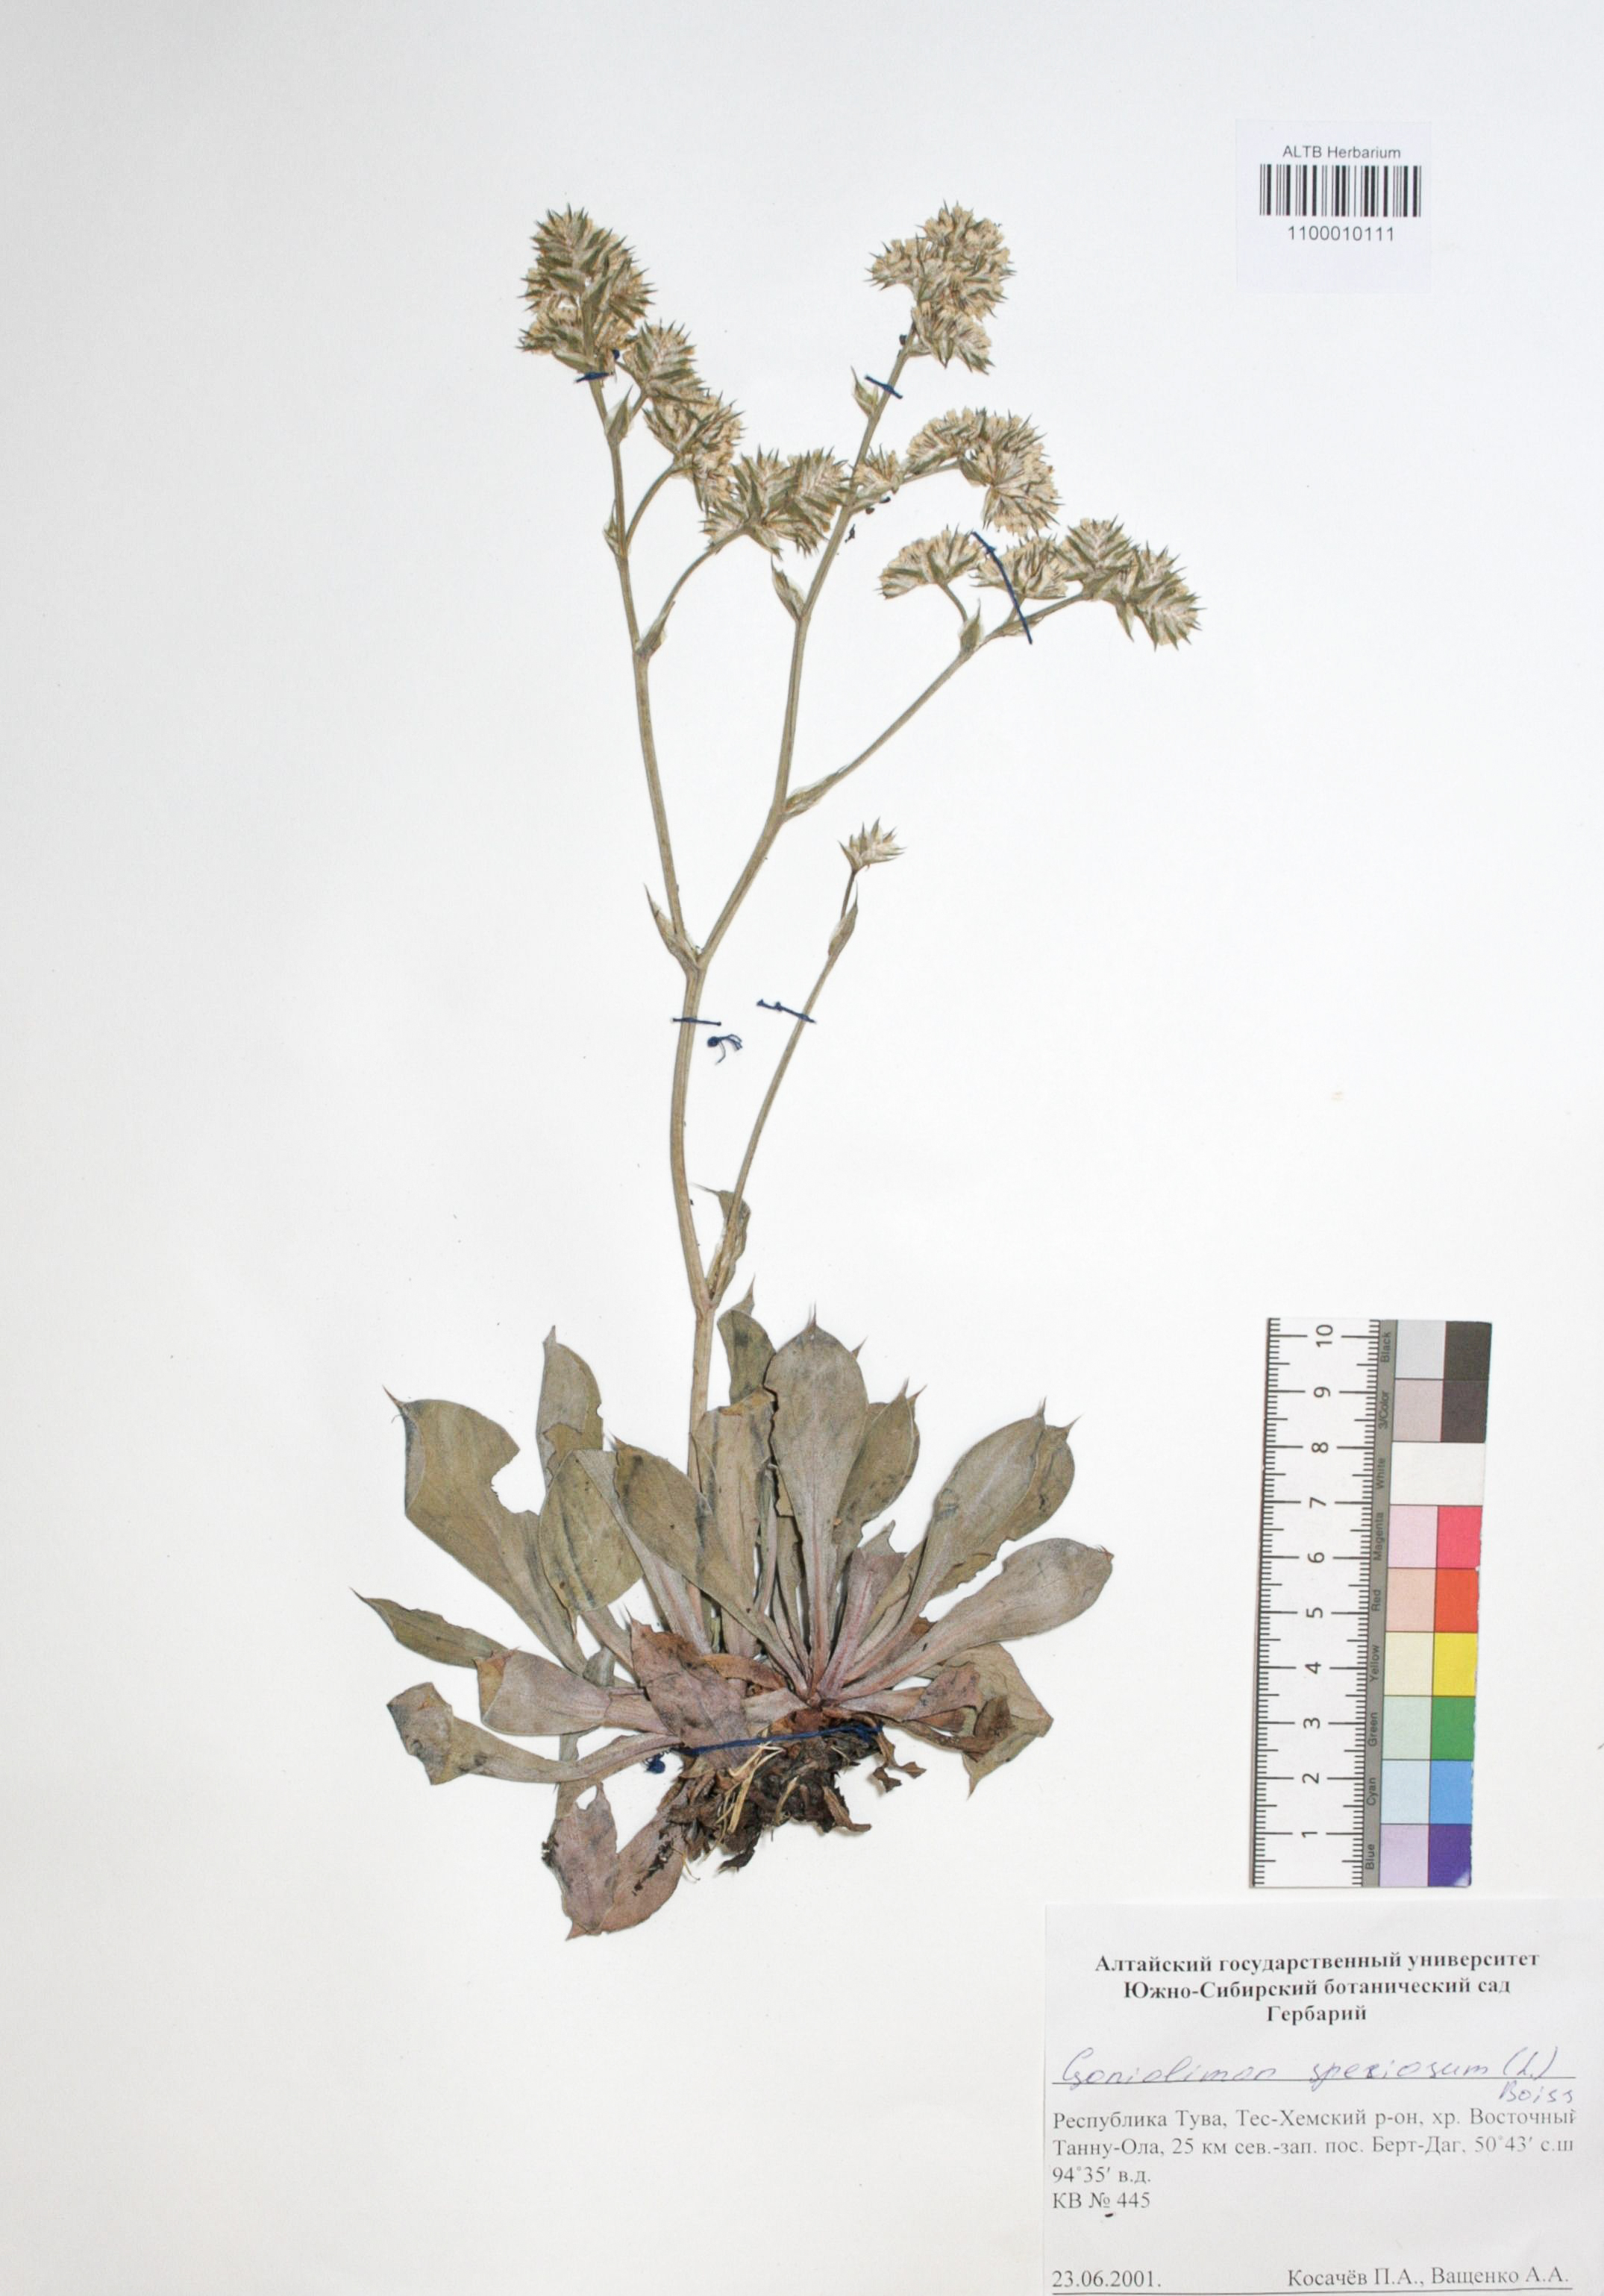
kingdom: Plantae
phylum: Tracheophyta
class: Magnoliopsida
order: Caryophyllales
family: Plumbaginaceae
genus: Goniolimon
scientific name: Goniolimon speciosum
